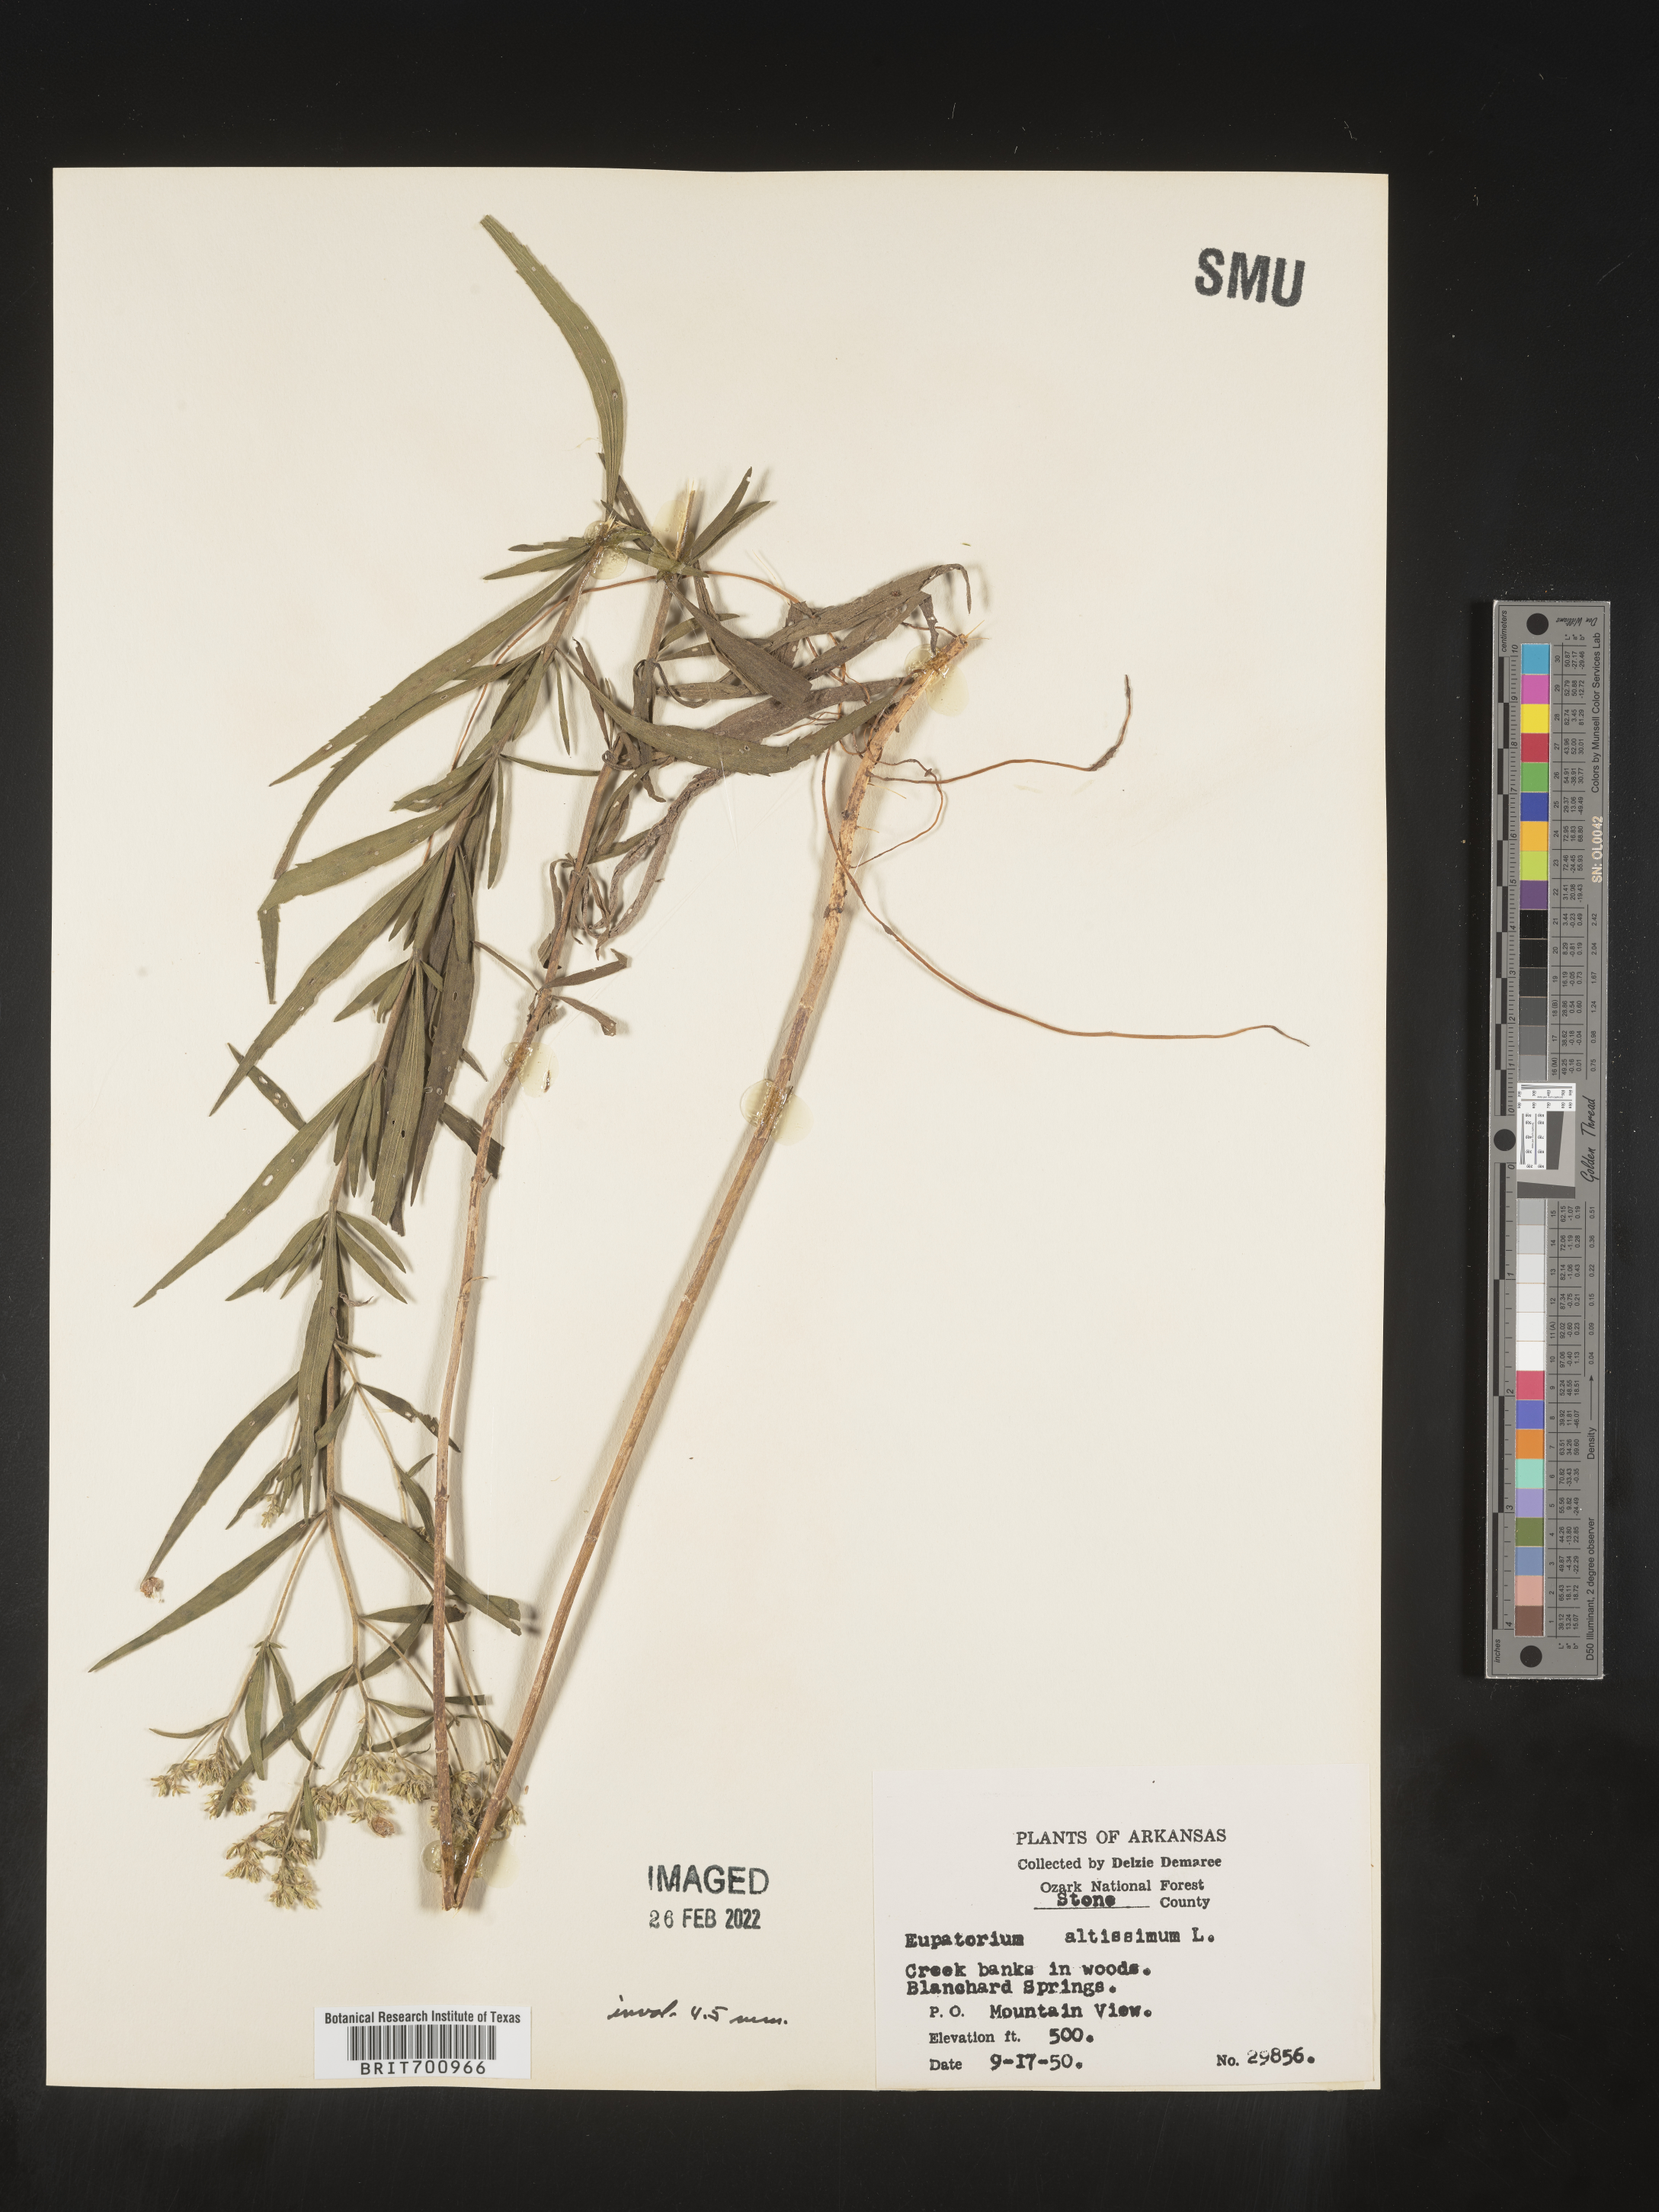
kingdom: Plantae
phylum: Tracheophyta
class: Magnoliopsida
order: Asterales
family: Asteraceae
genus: Eupatorium
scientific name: Eupatorium altissimum
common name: Tall thoroughwort
